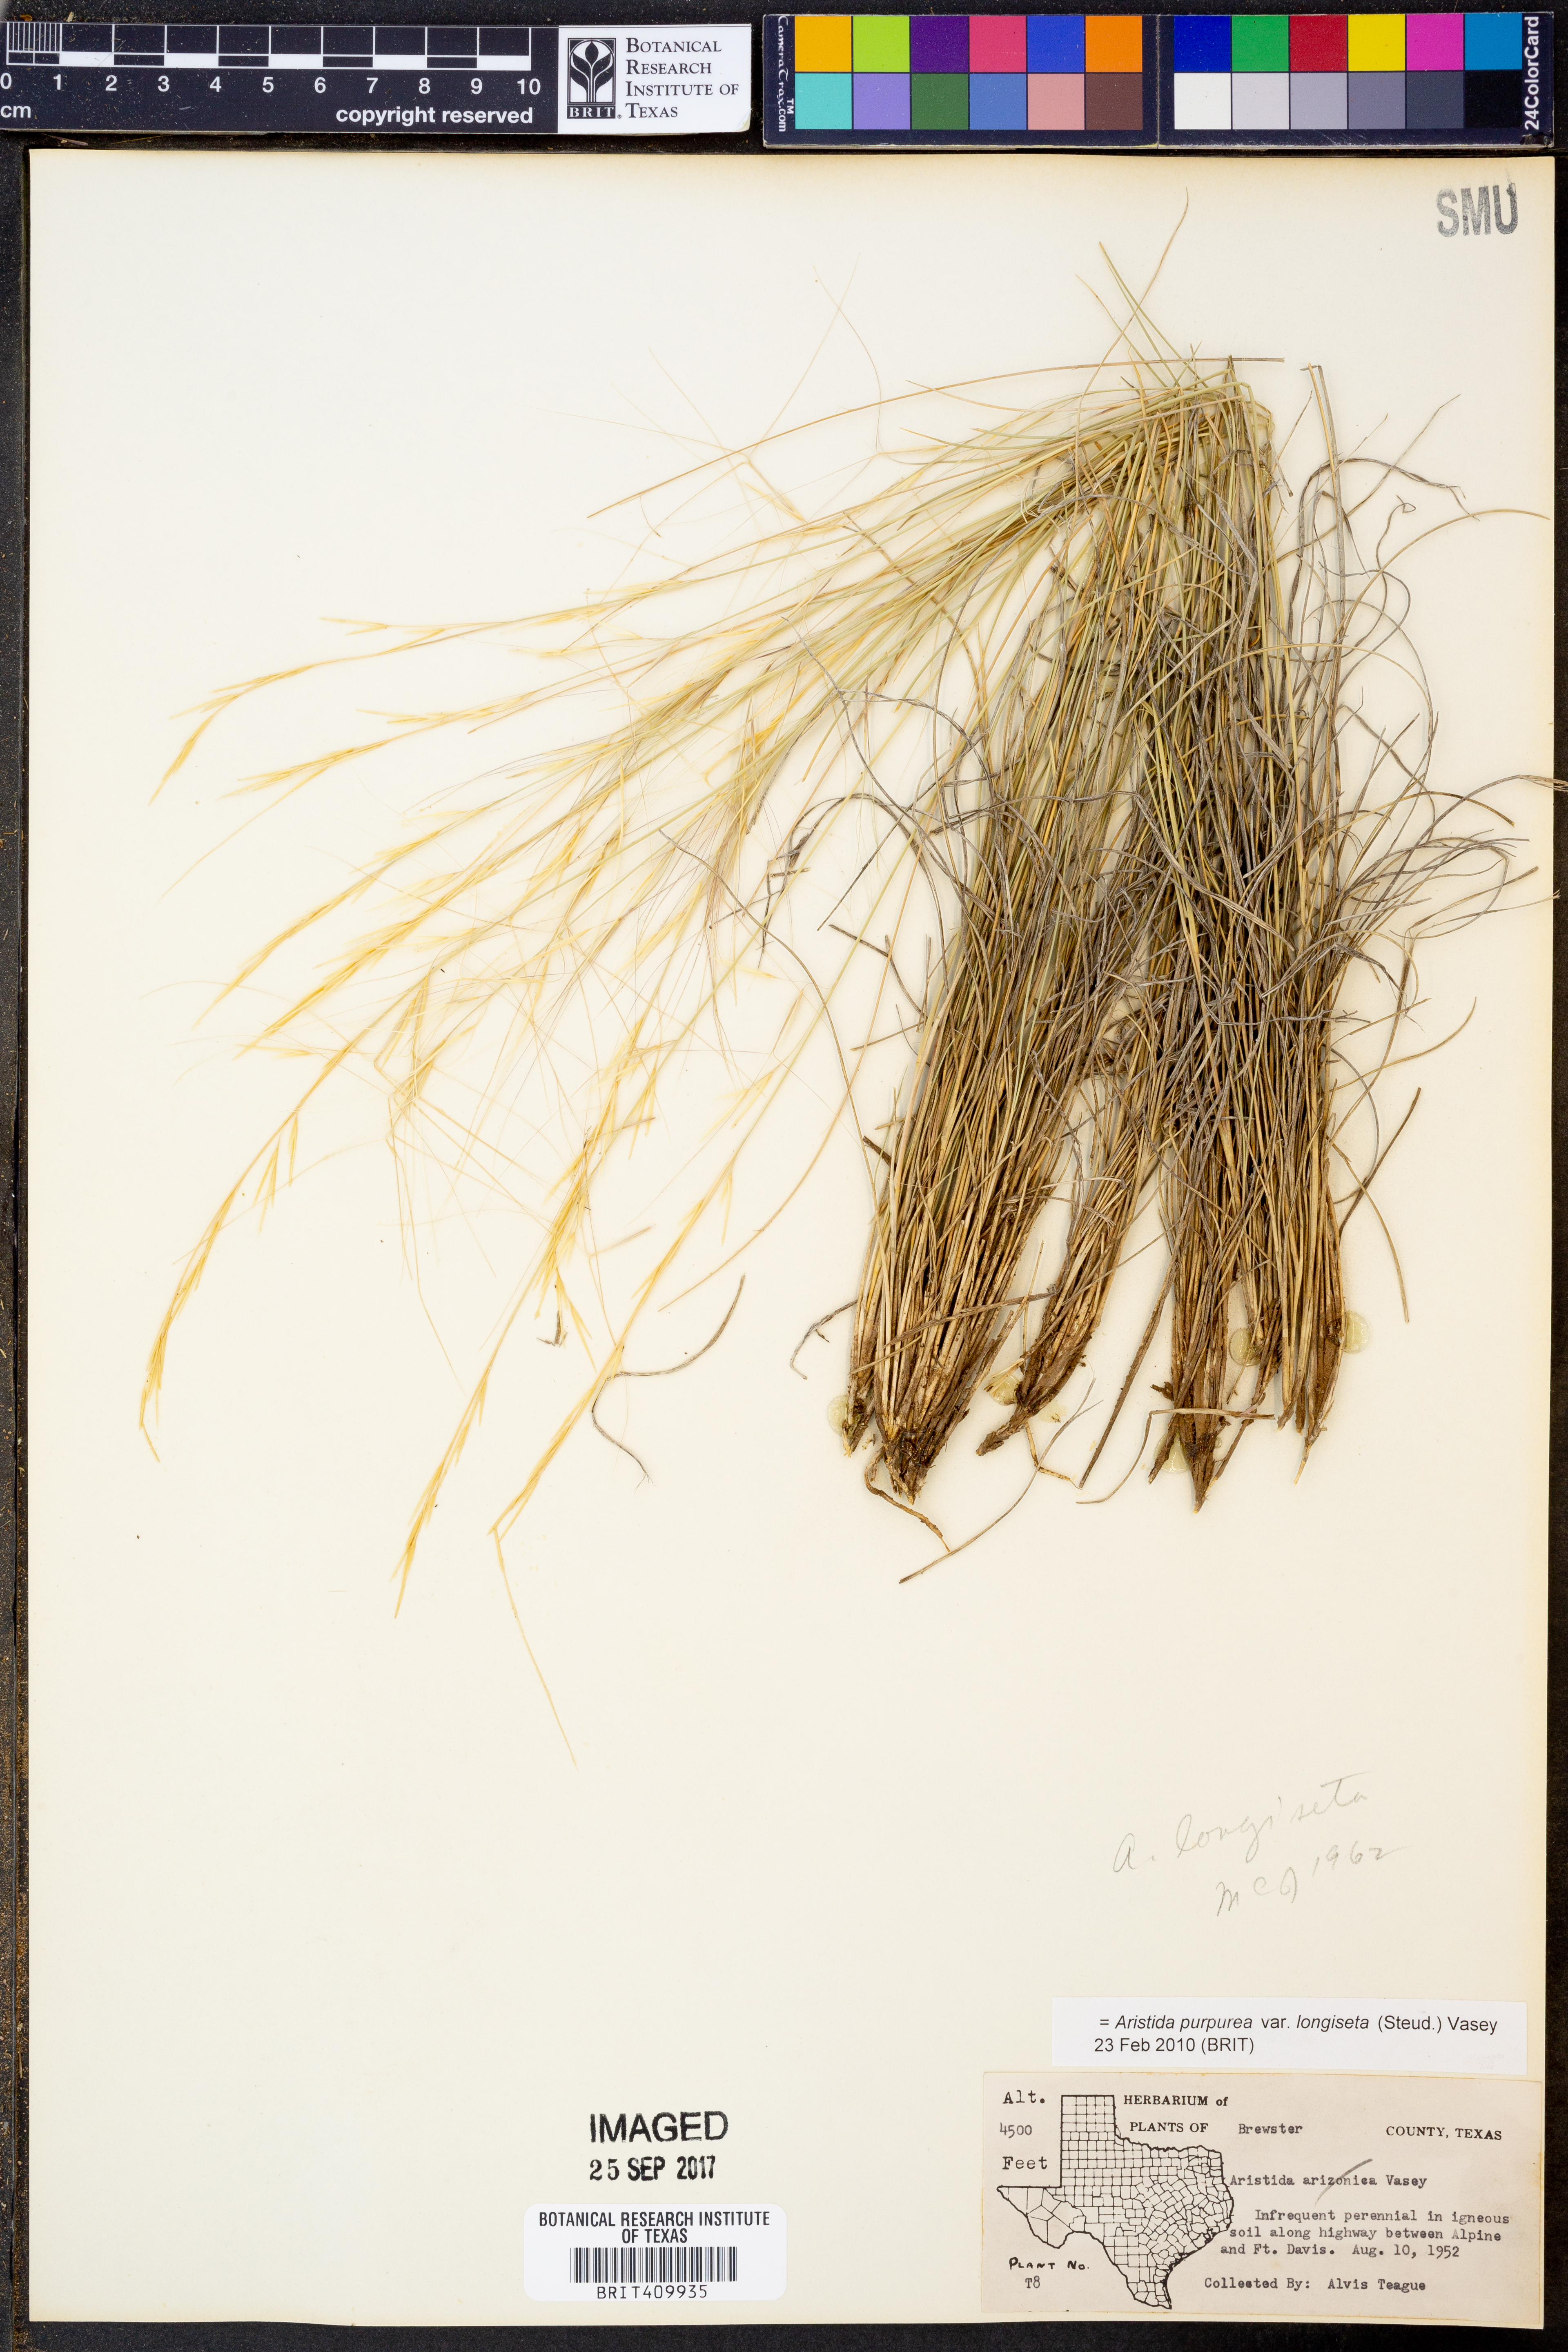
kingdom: Plantae
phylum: Tracheophyta
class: Liliopsida
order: Poales
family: Poaceae
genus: Aristida
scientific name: Aristida longiseta
